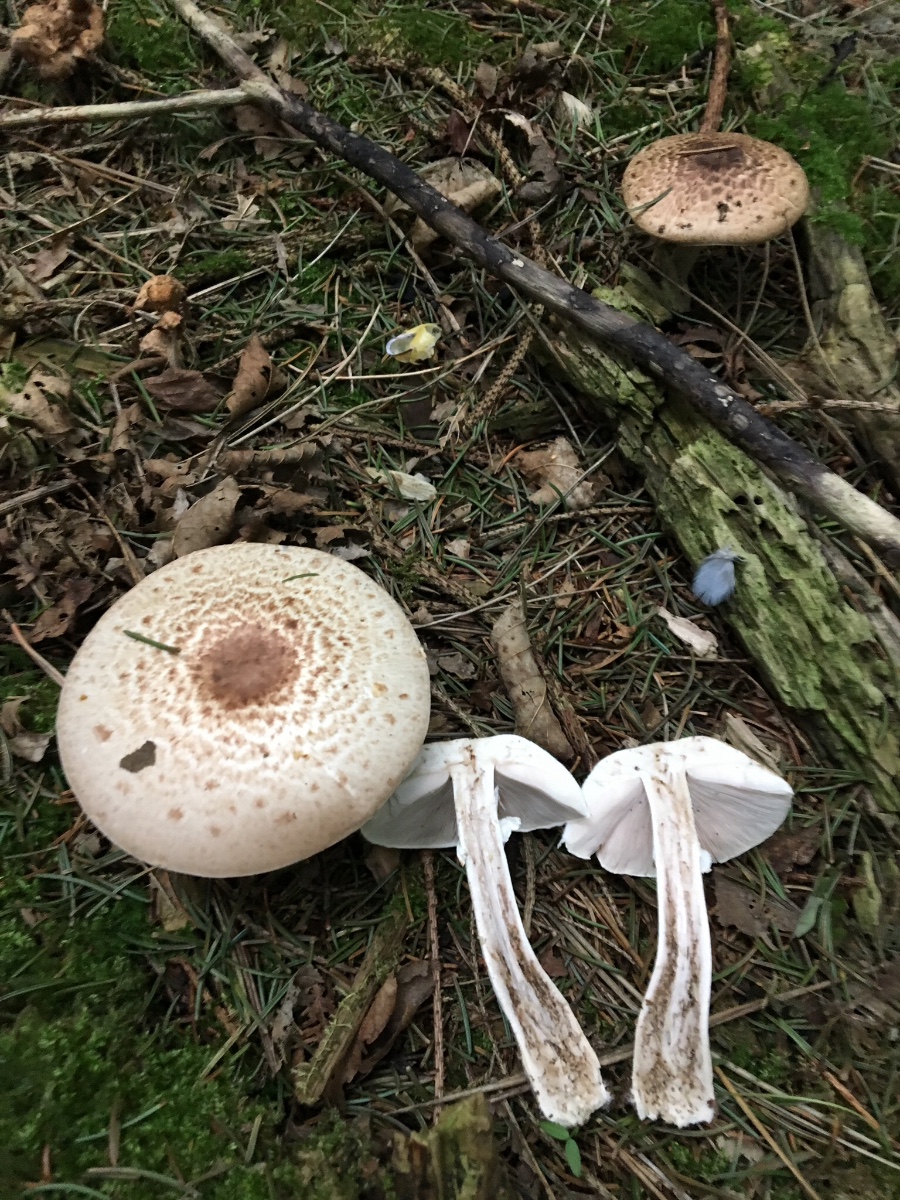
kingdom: Fungi
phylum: Basidiomycota
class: Agaricomycetes
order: Agaricales
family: Agaricaceae
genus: Agaricus
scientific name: Agaricus impudicus
